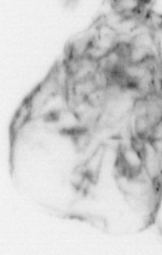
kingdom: Animalia
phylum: Chordata
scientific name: Chordata
